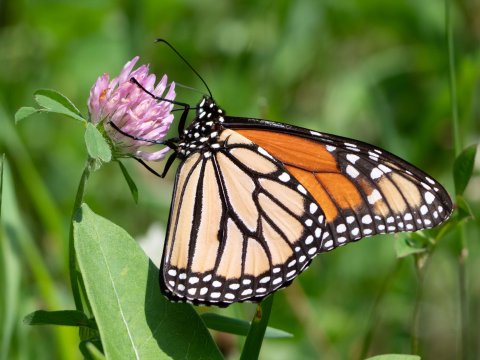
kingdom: Animalia
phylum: Arthropoda
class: Insecta
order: Lepidoptera
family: Nymphalidae
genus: Danaus
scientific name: Danaus plexippus
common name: Monarch
